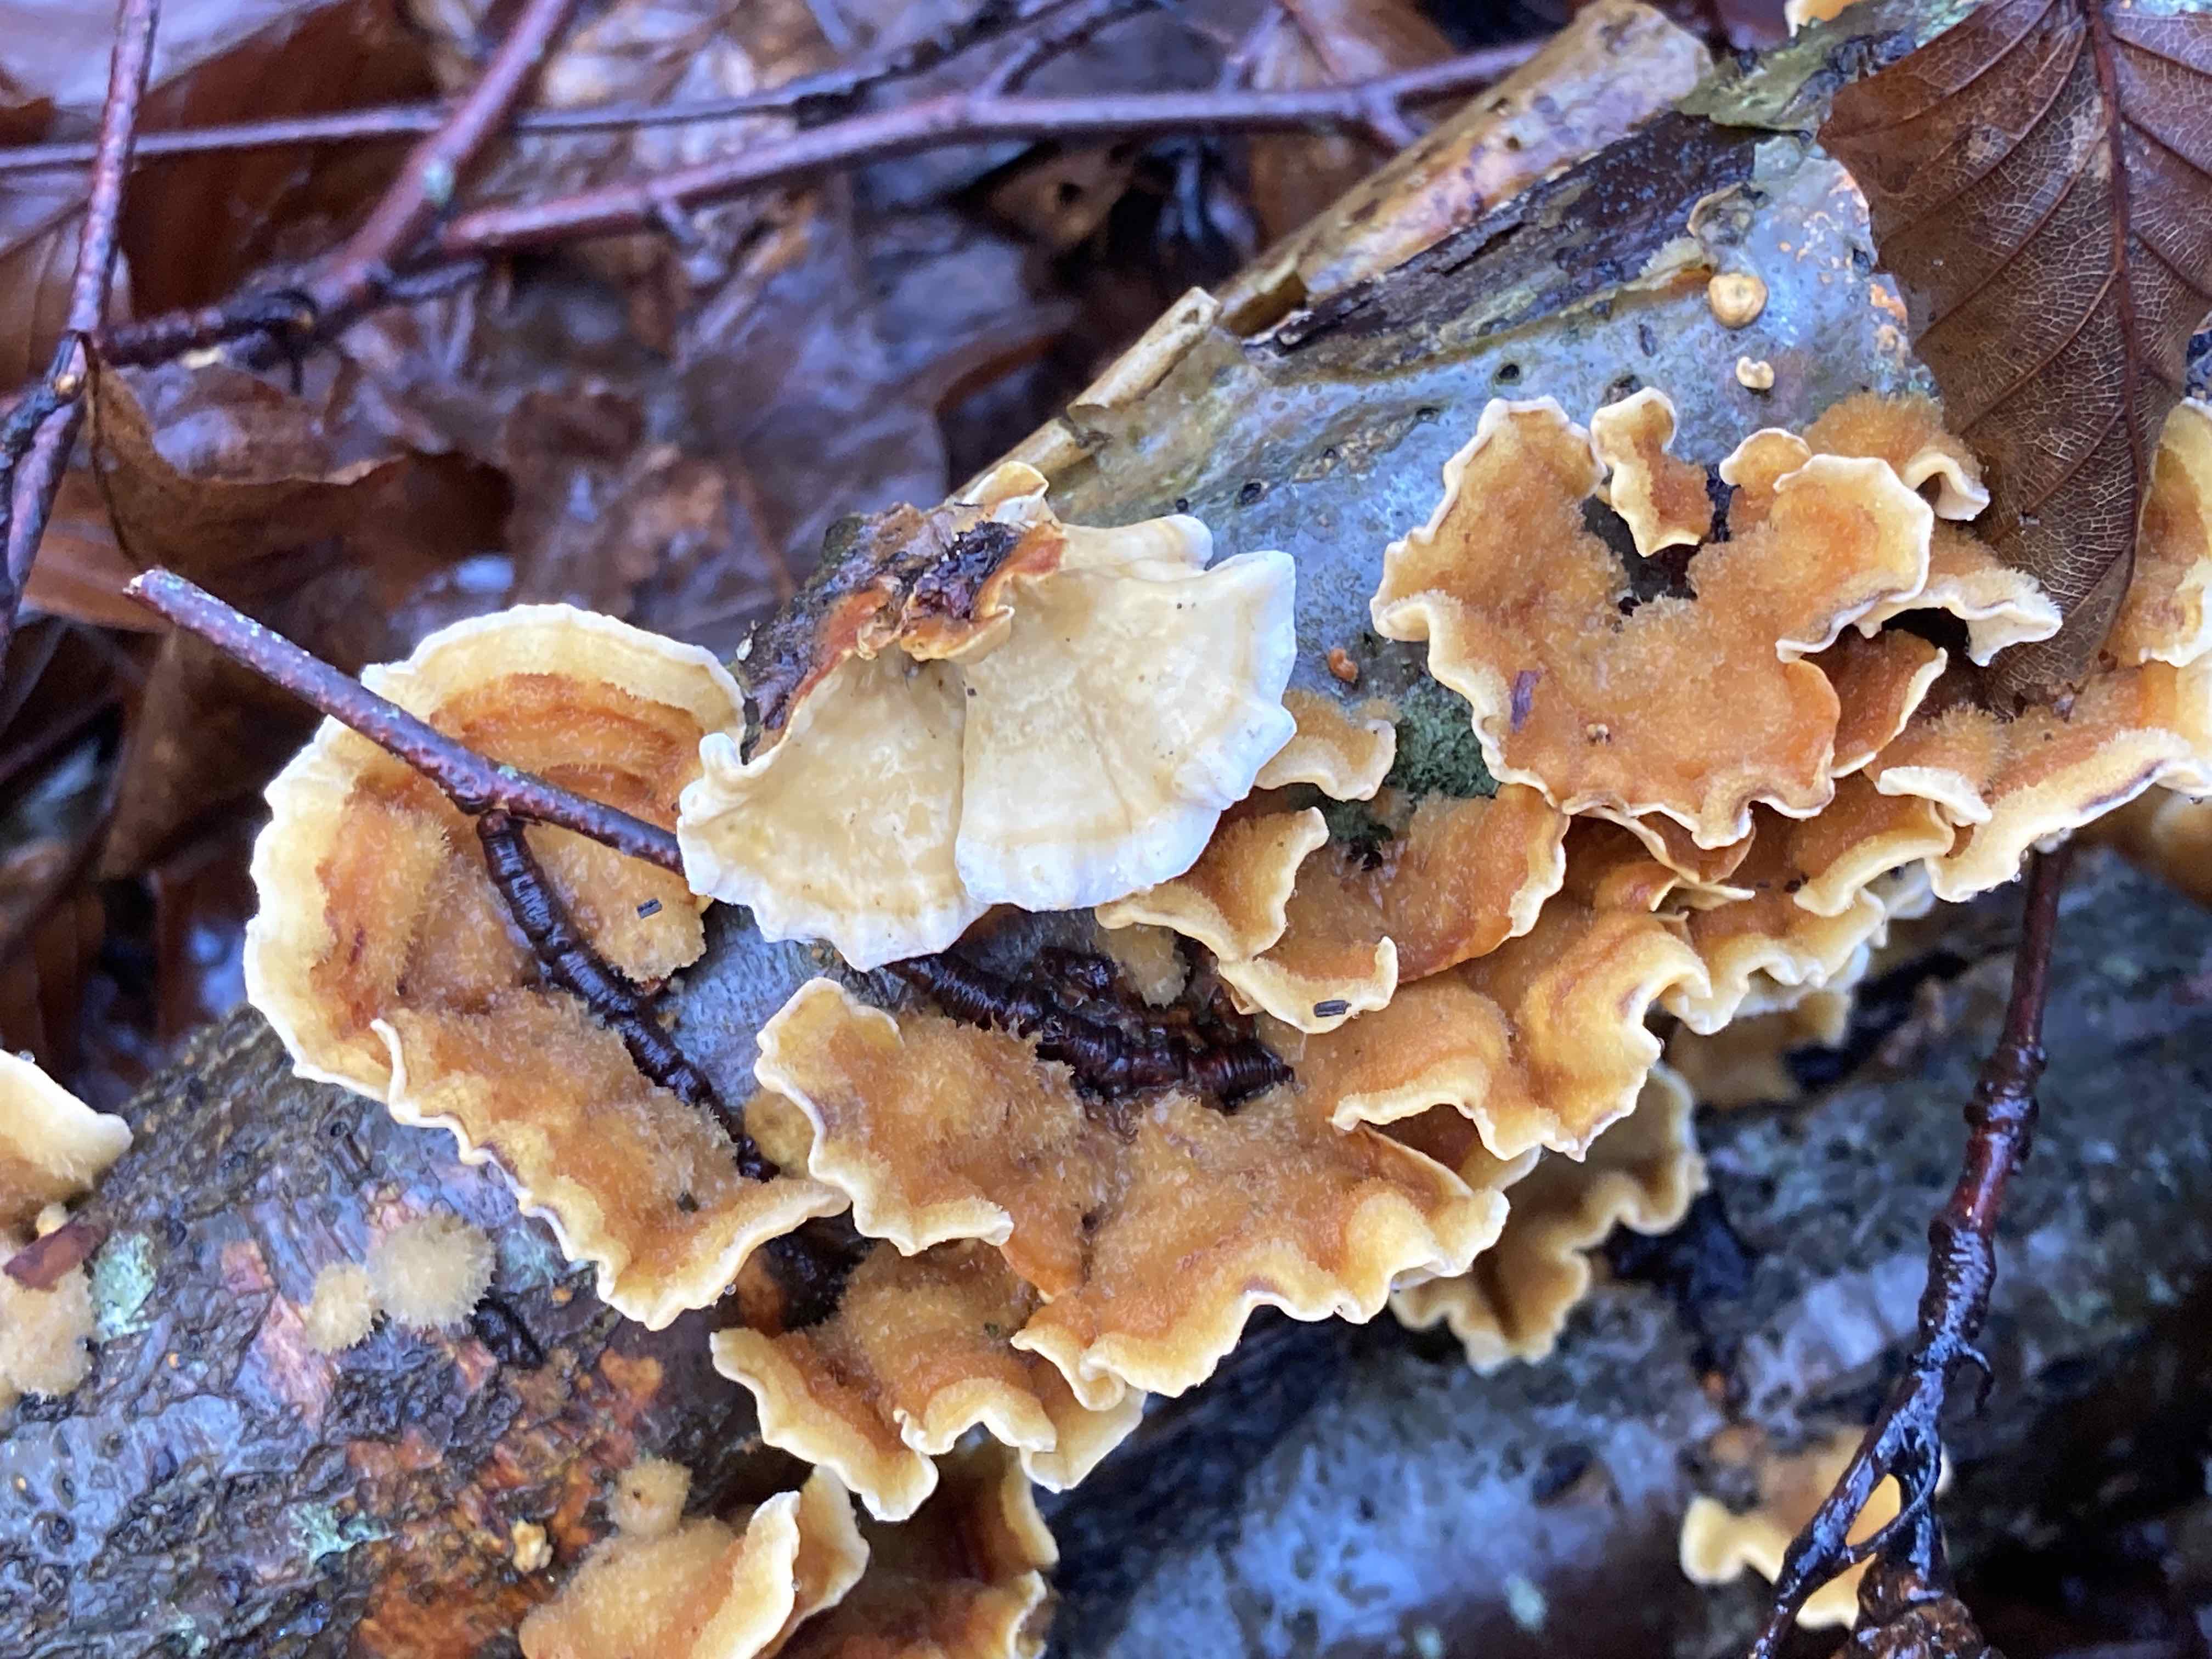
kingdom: Fungi
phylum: Basidiomycota
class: Agaricomycetes
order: Russulales
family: Stereaceae
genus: Stereum
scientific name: Stereum hirsutum
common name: håret lædersvamp
